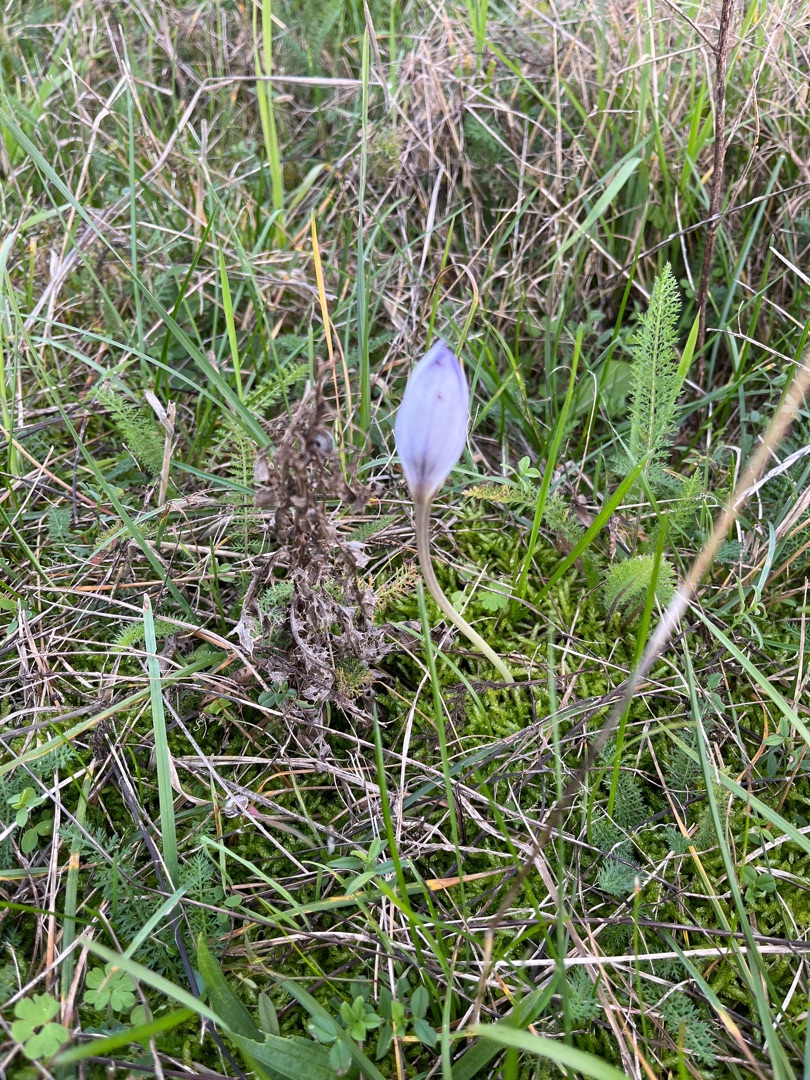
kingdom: Plantae
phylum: Tracheophyta
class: Liliopsida
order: Asparagales
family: Iridaceae
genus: Crocus
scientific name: Crocus speciosus
